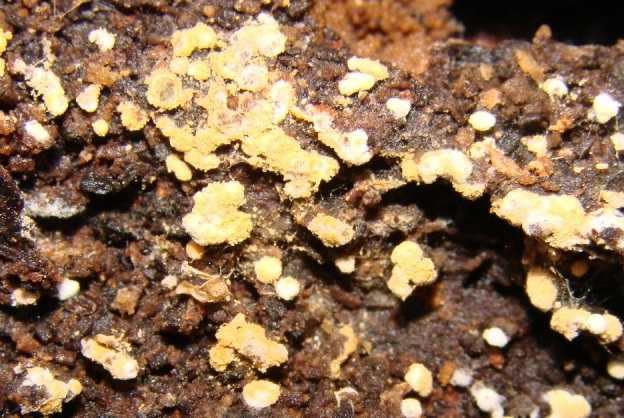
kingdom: Fungi
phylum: Basidiomycota
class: Agaricomycetes
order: Cantharellales
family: Botryobasidiaceae
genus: Botryobasidium
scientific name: Botryobasidium aureum
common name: gylden spindhinde
